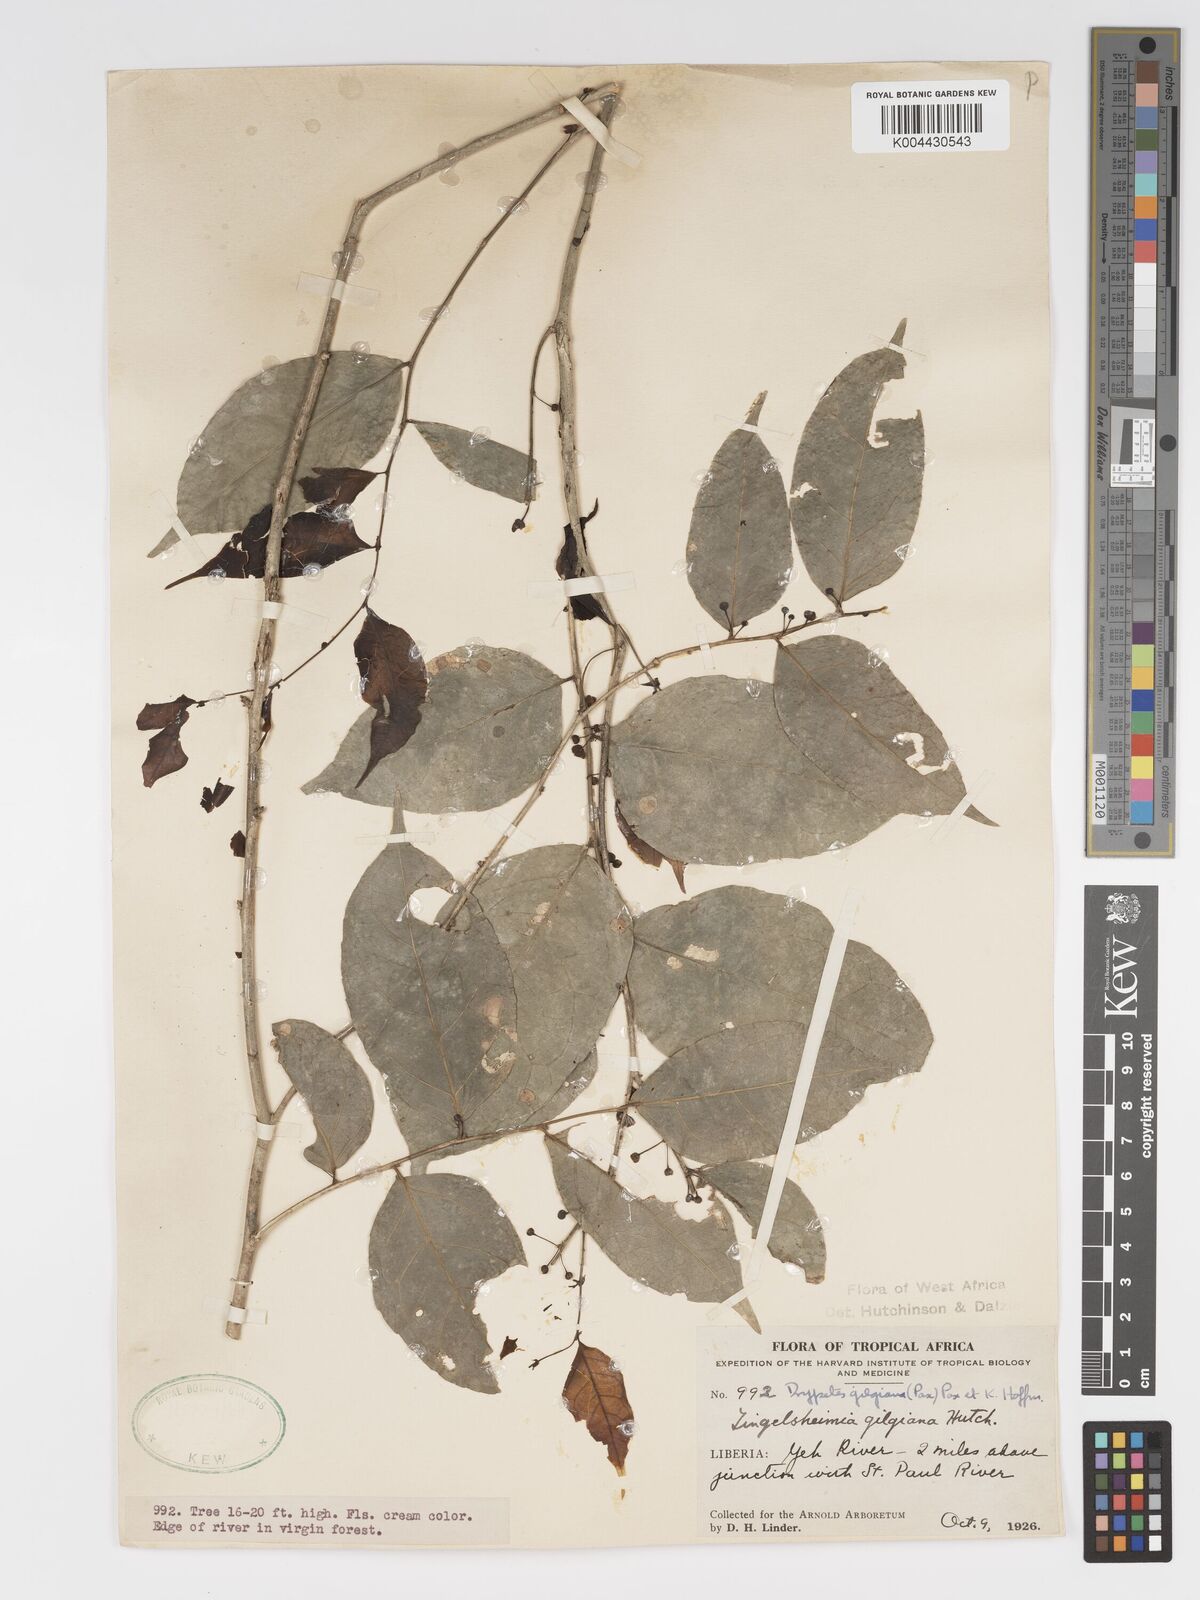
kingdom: Plantae
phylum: Tracheophyta
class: Magnoliopsida
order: Malpighiales
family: Putranjivaceae
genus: Drypetes
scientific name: Drypetes gilgiana
